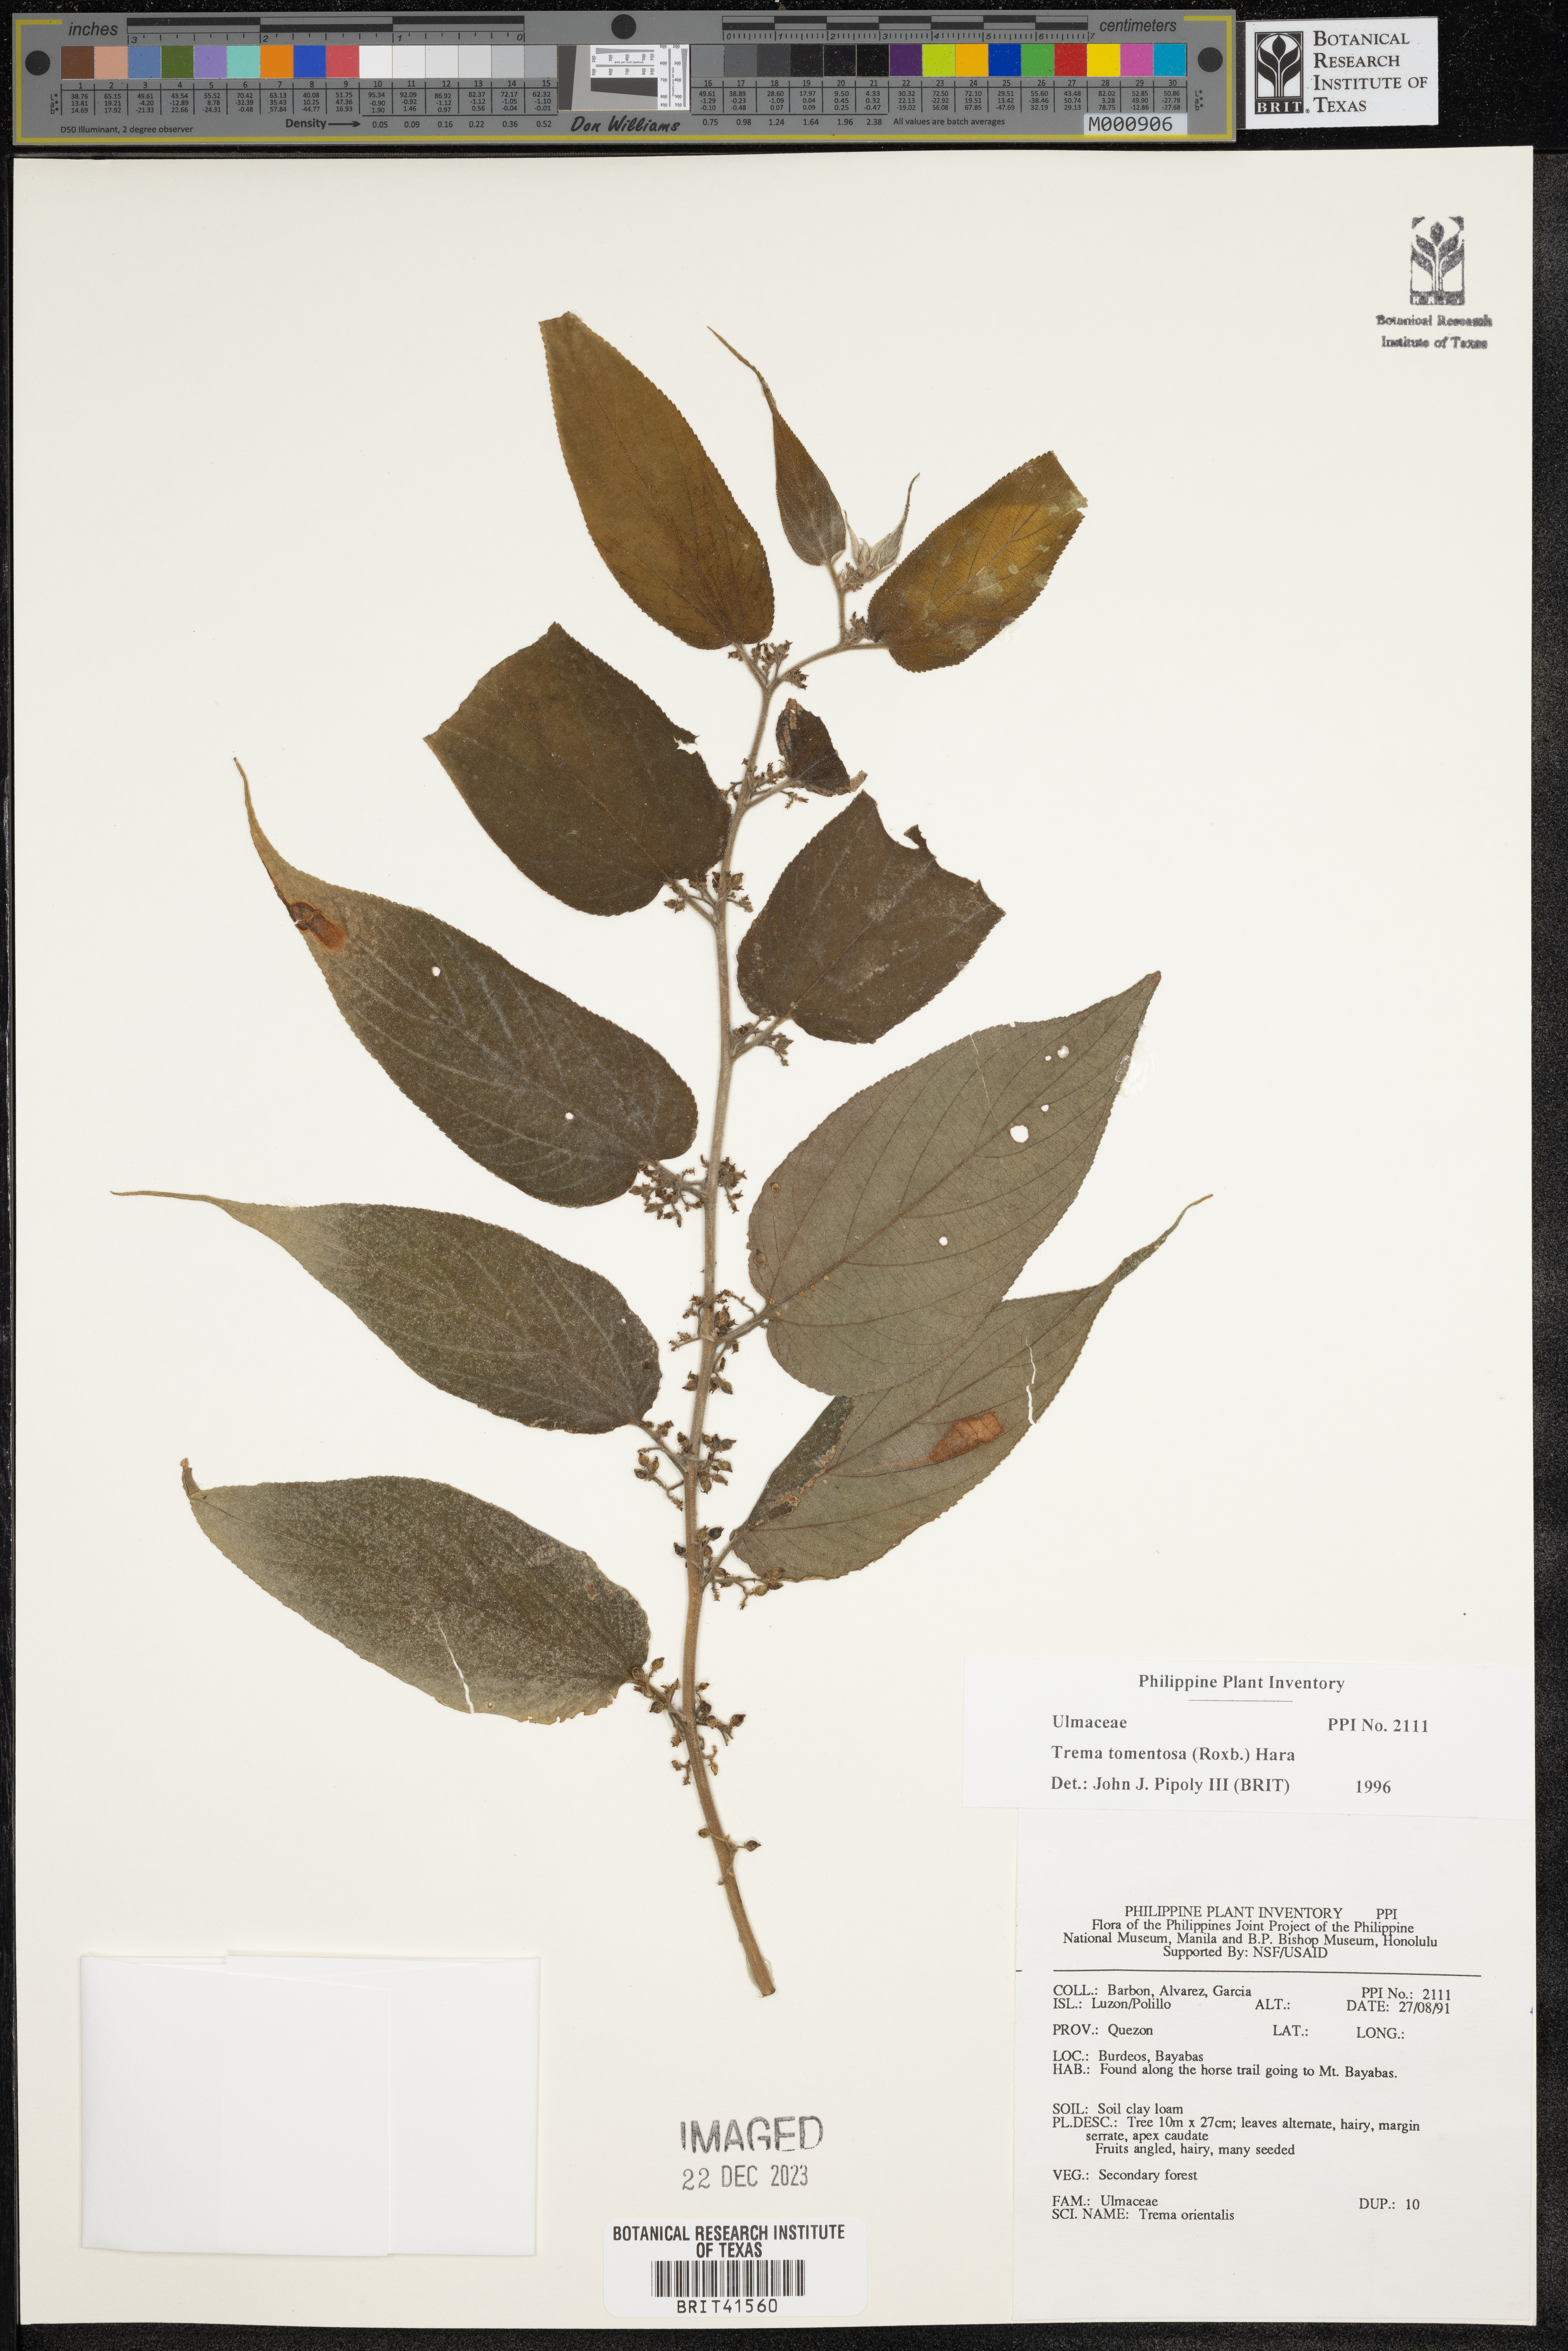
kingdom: Plantae
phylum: Tracheophyta
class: Magnoliopsida
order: Rosales
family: Cannabaceae
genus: Trema
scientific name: Trema tomentosum
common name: Peach-leaf-poisonbush
